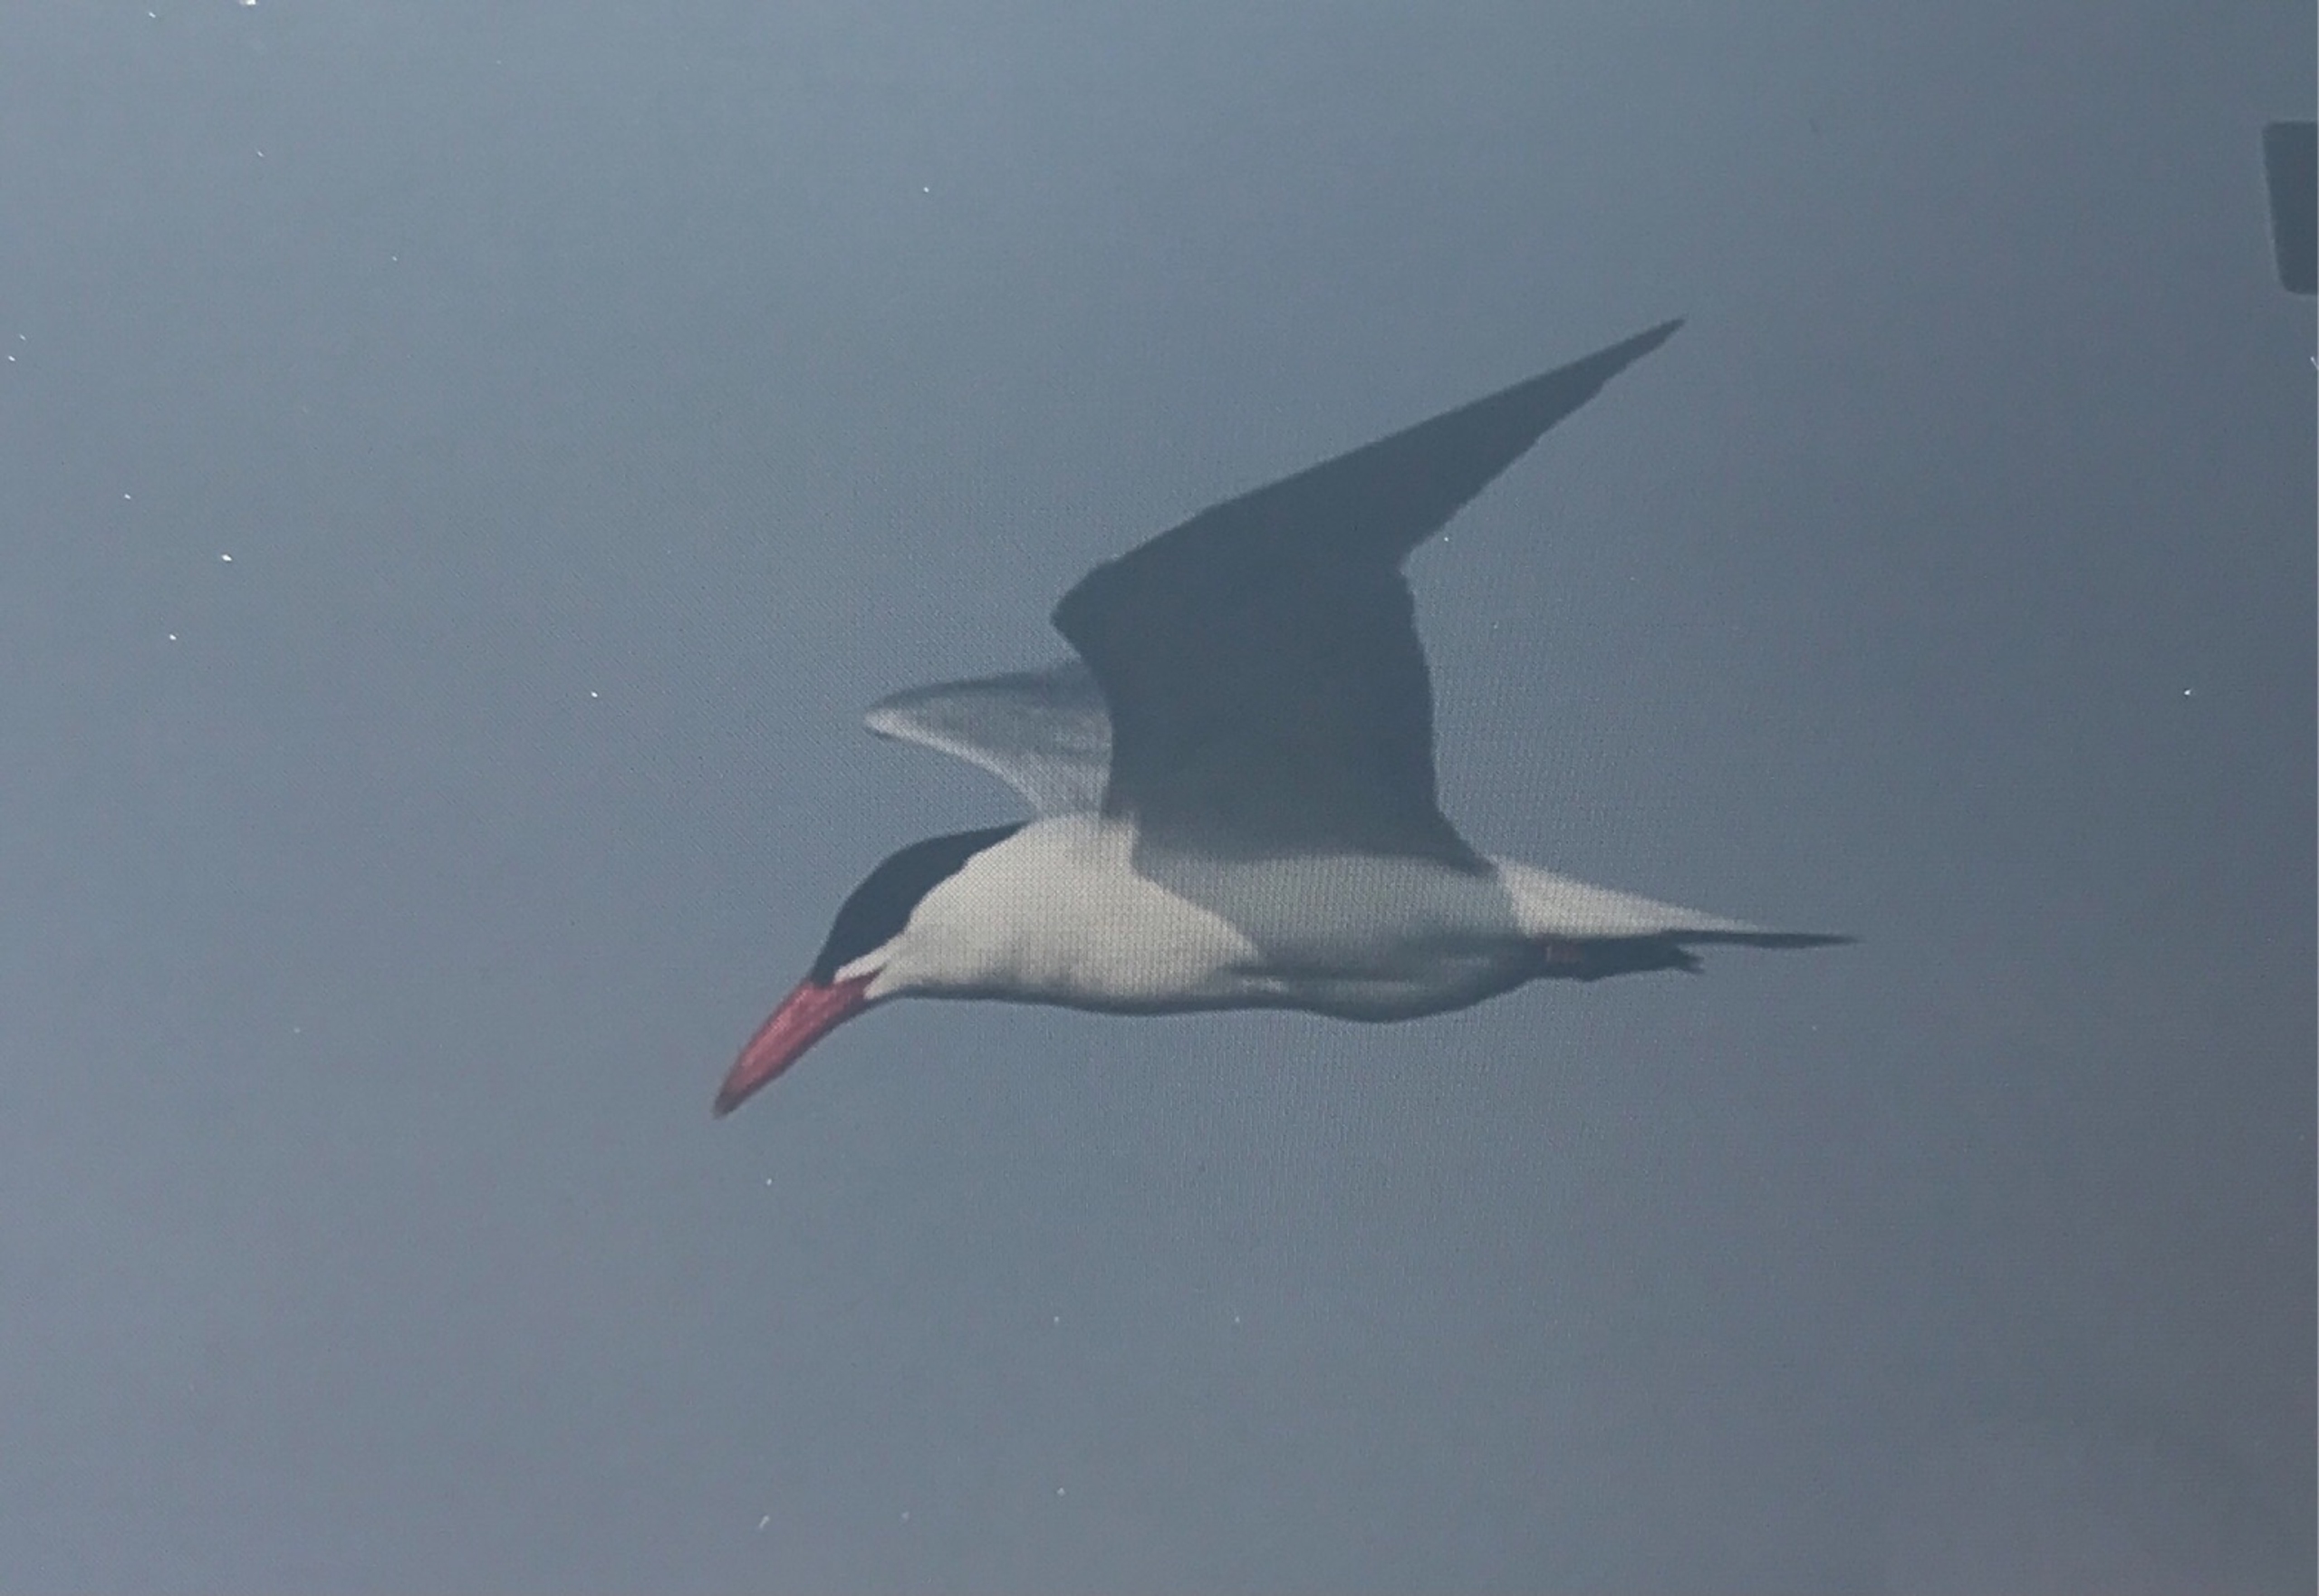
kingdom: Animalia
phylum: Chordata
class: Aves
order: Charadriiformes
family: Laridae
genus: Hydroprogne
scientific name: Hydroprogne caspia
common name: Rovterne
